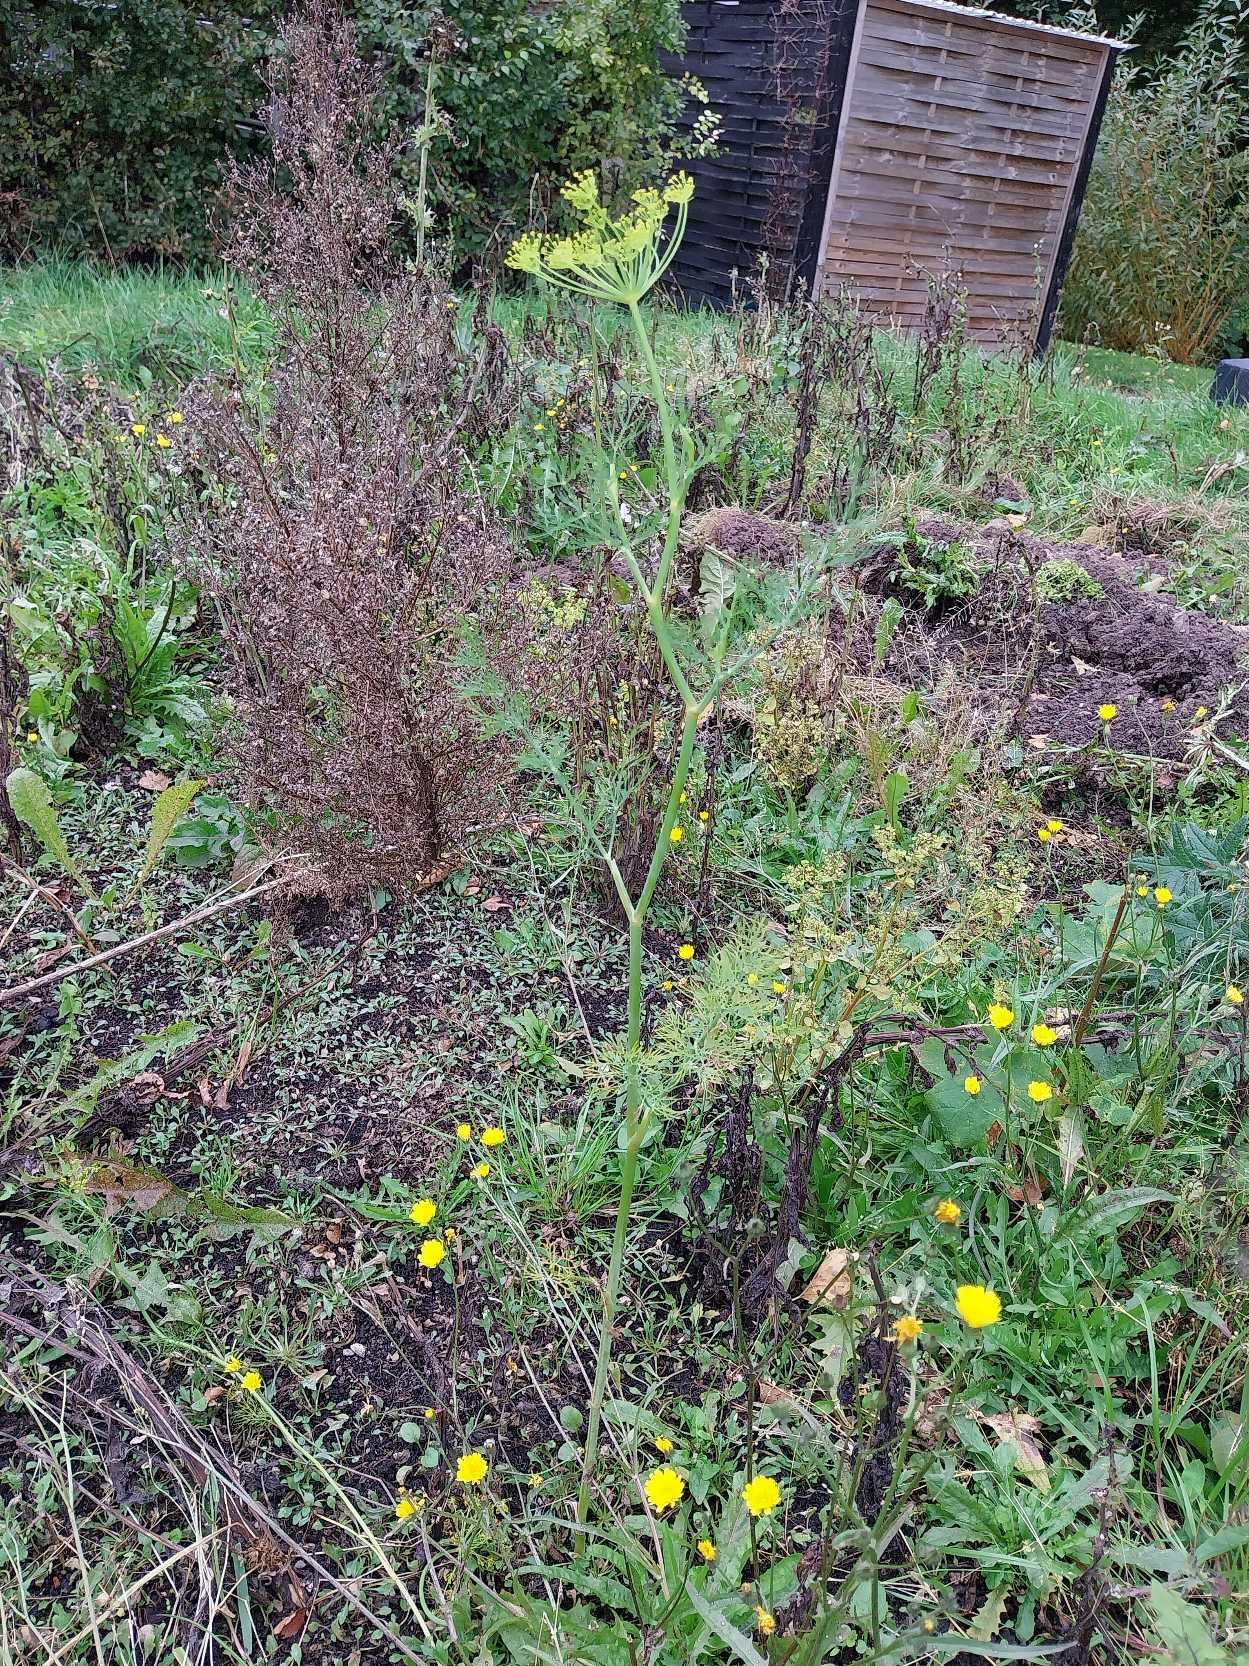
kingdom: Plantae
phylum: Tracheophyta
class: Magnoliopsida
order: Apiales
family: Apiaceae
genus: Anethum
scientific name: Anethum graveolens
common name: Dild
